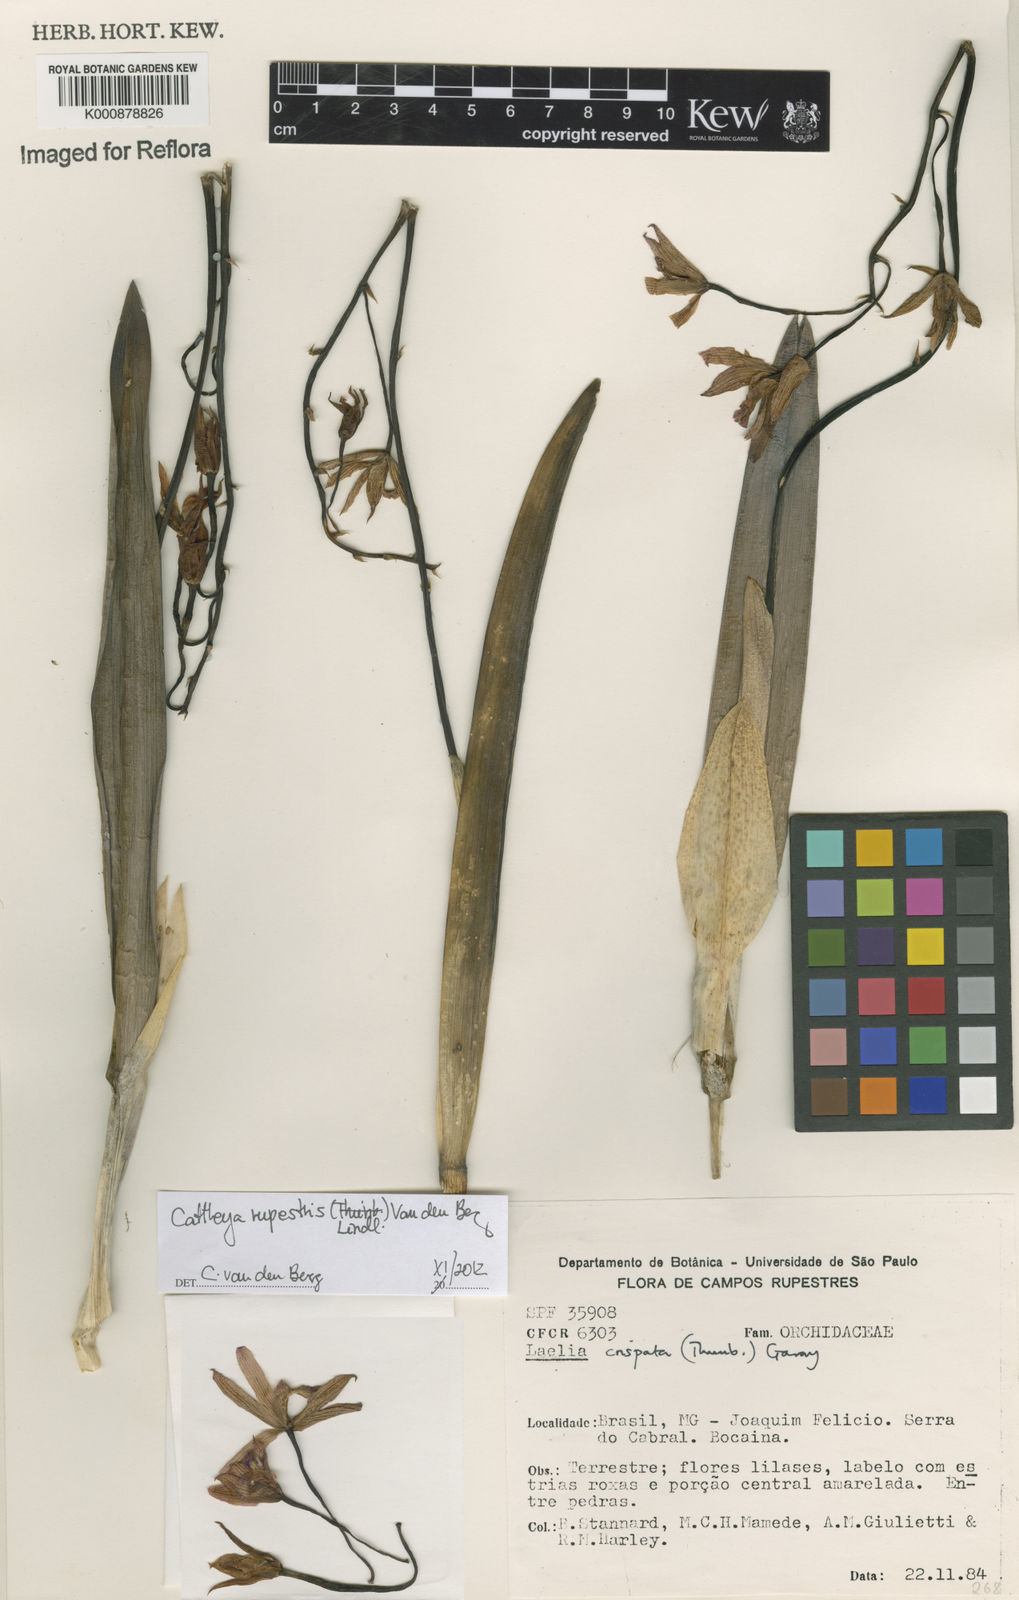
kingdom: Plantae
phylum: Tracheophyta
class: Liliopsida
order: Asparagales
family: Orchidaceae
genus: Cattleya
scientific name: Cattleya rupestris
